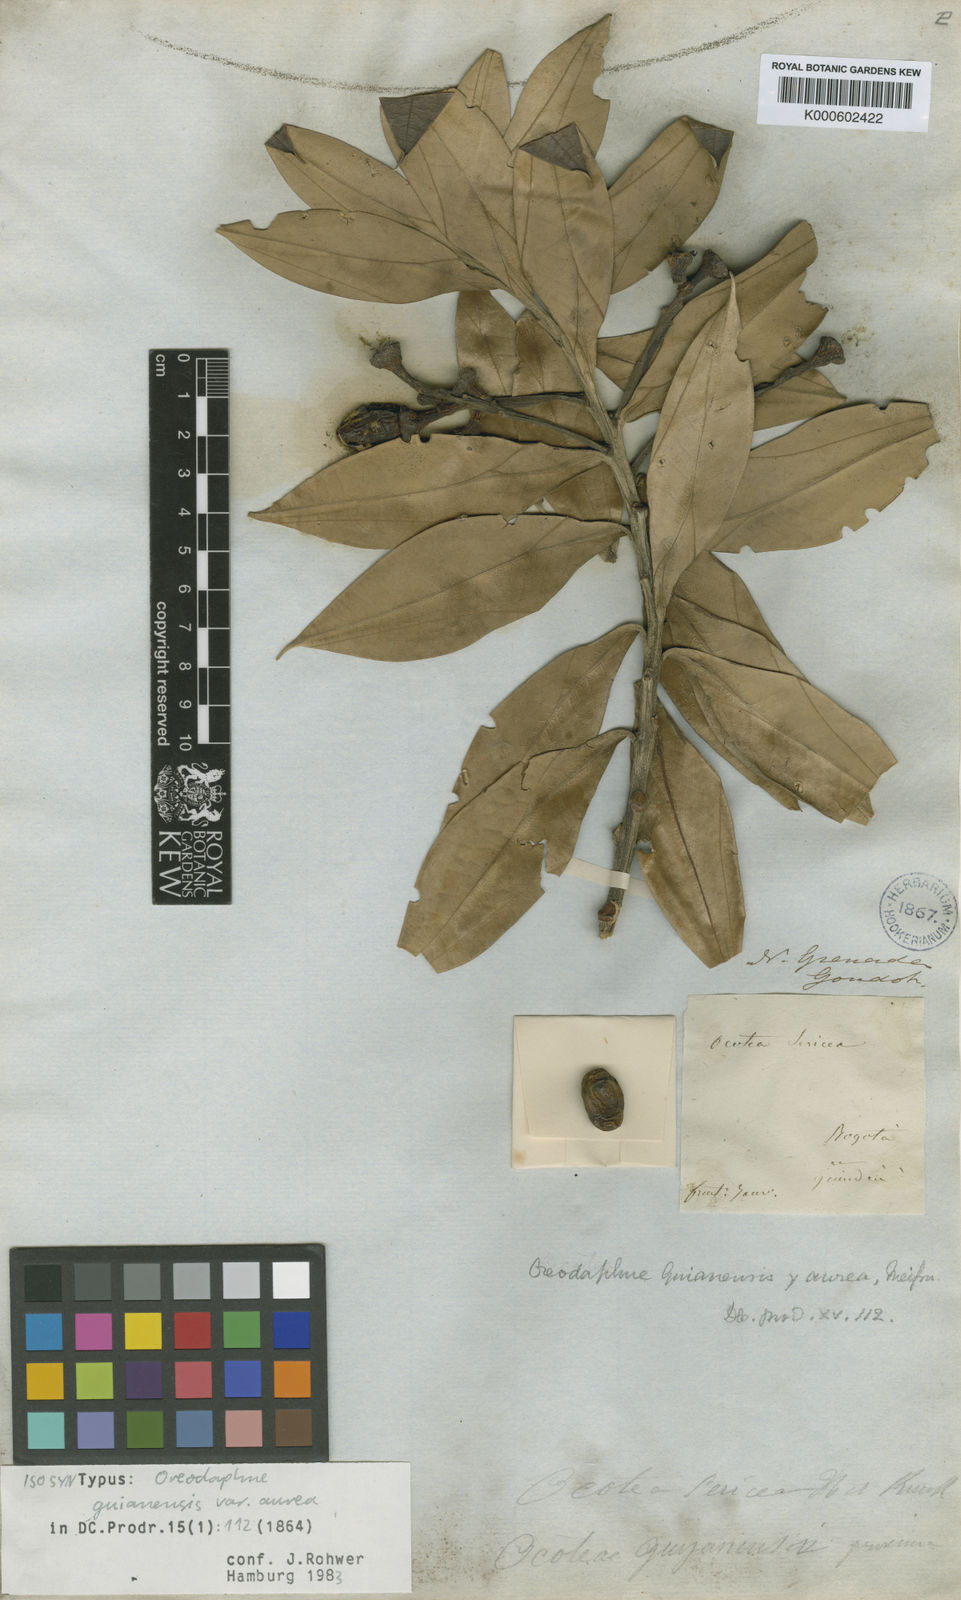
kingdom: Plantae
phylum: Tracheophyta
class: Magnoliopsida
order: Laurales
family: Lauraceae
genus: Ocotea
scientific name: Ocotea guianensis
